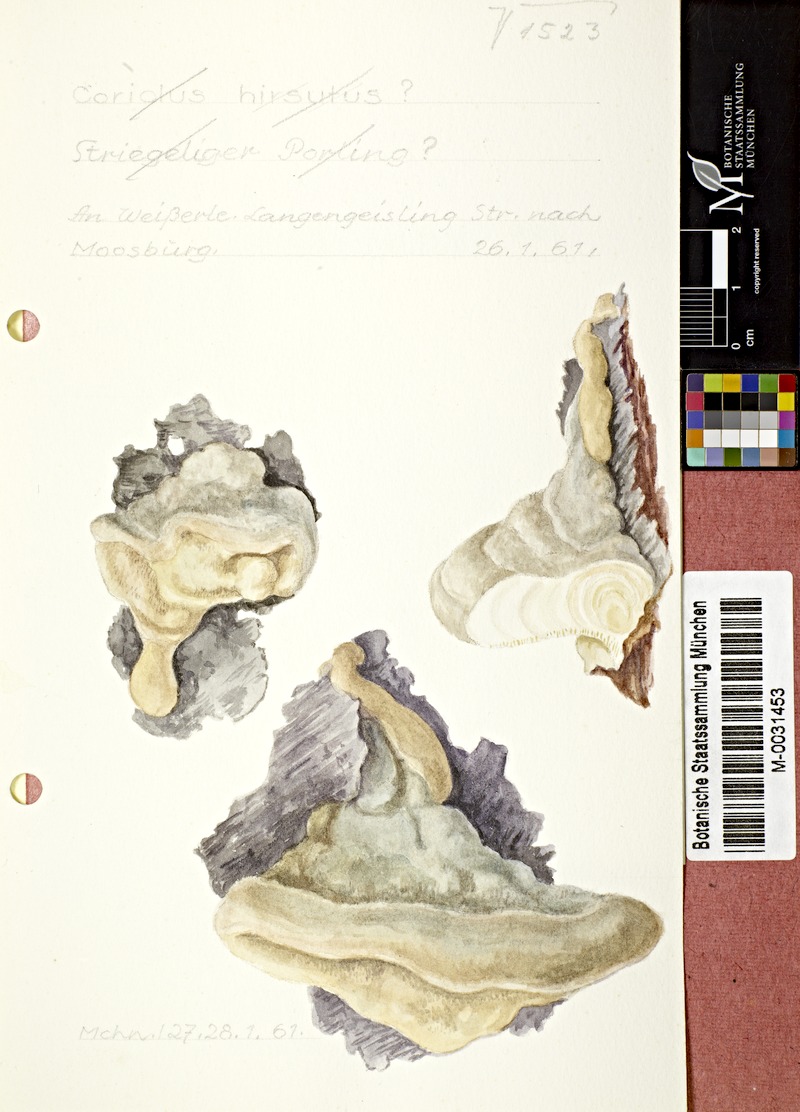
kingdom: Fungi
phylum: Basidiomycota
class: Agaricomycetes
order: Polyporales
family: Polyporaceae
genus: Trametes
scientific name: Trametes hirsuta
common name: Hairy bracket
